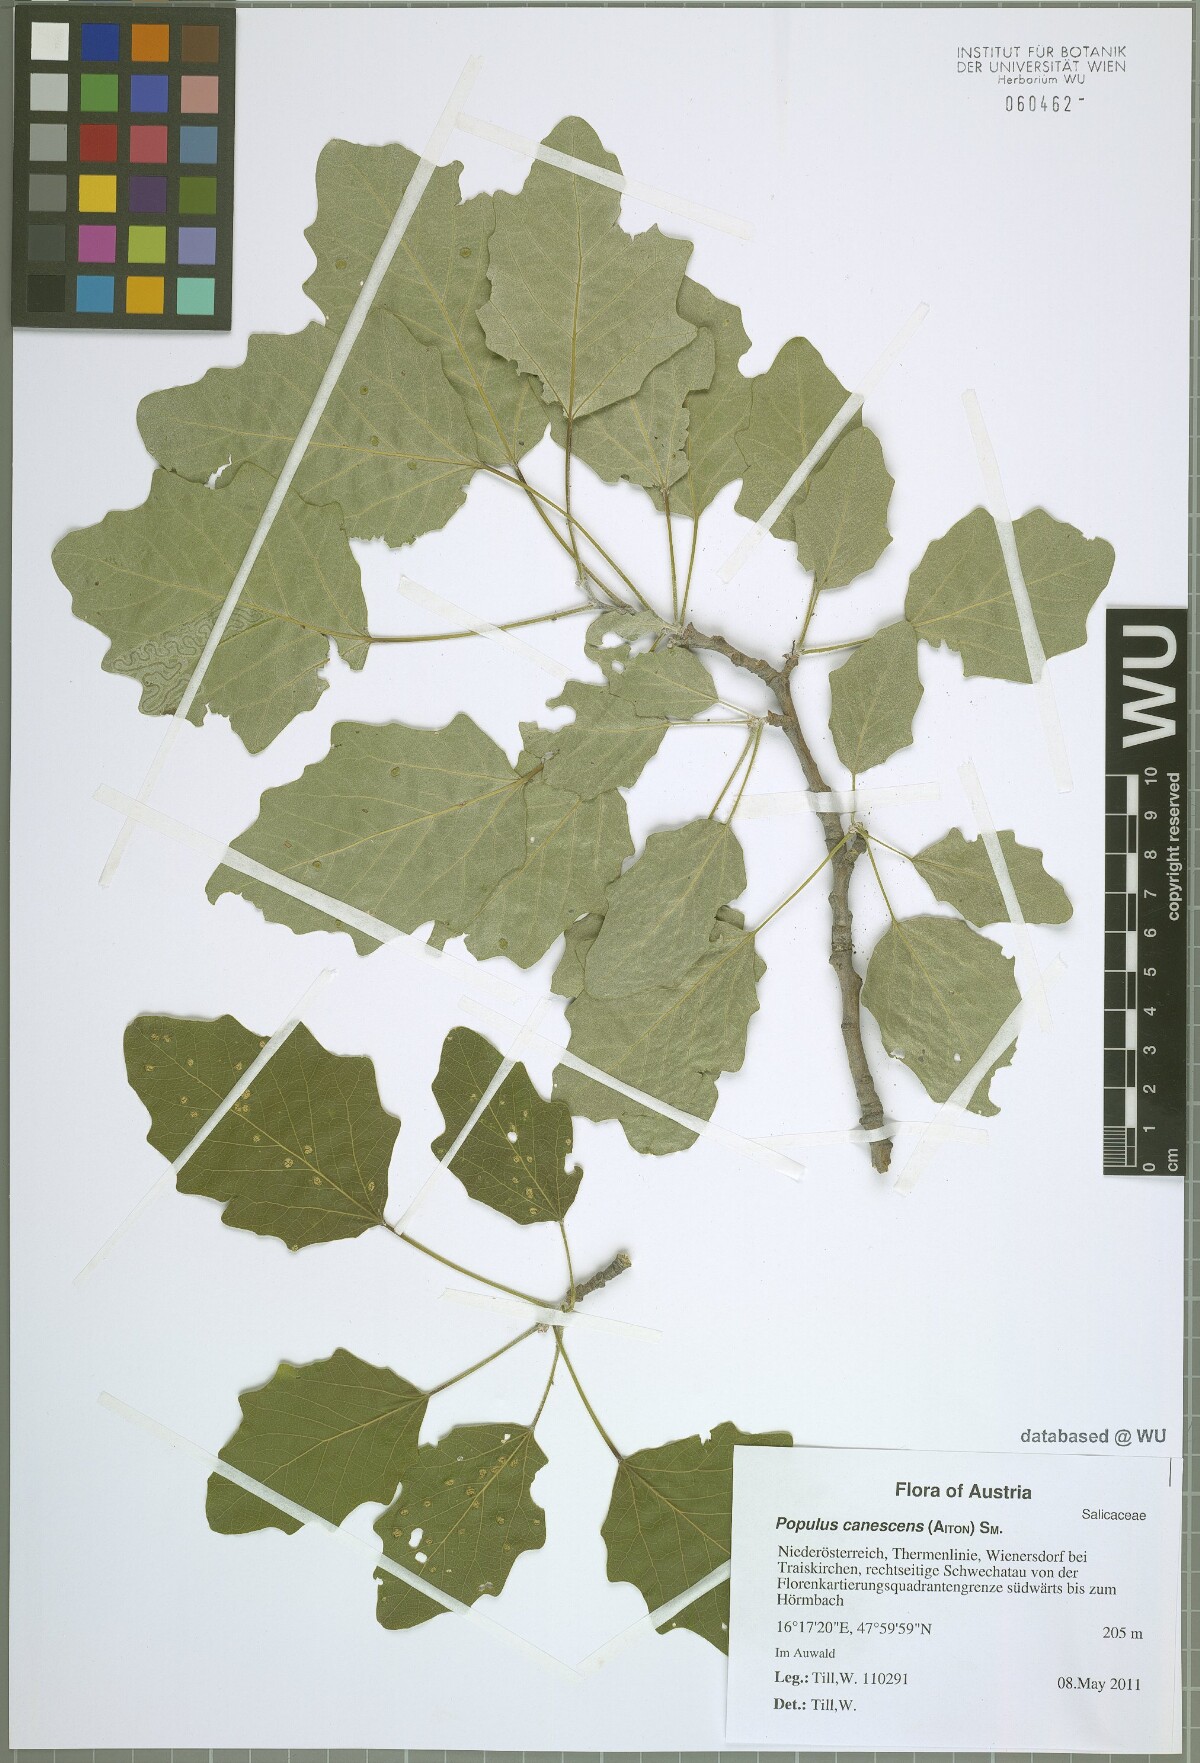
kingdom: Plantae
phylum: Tracheophyta
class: Magnoliopsida
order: Malpighiales
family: Salicaceae
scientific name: Salicaceae
